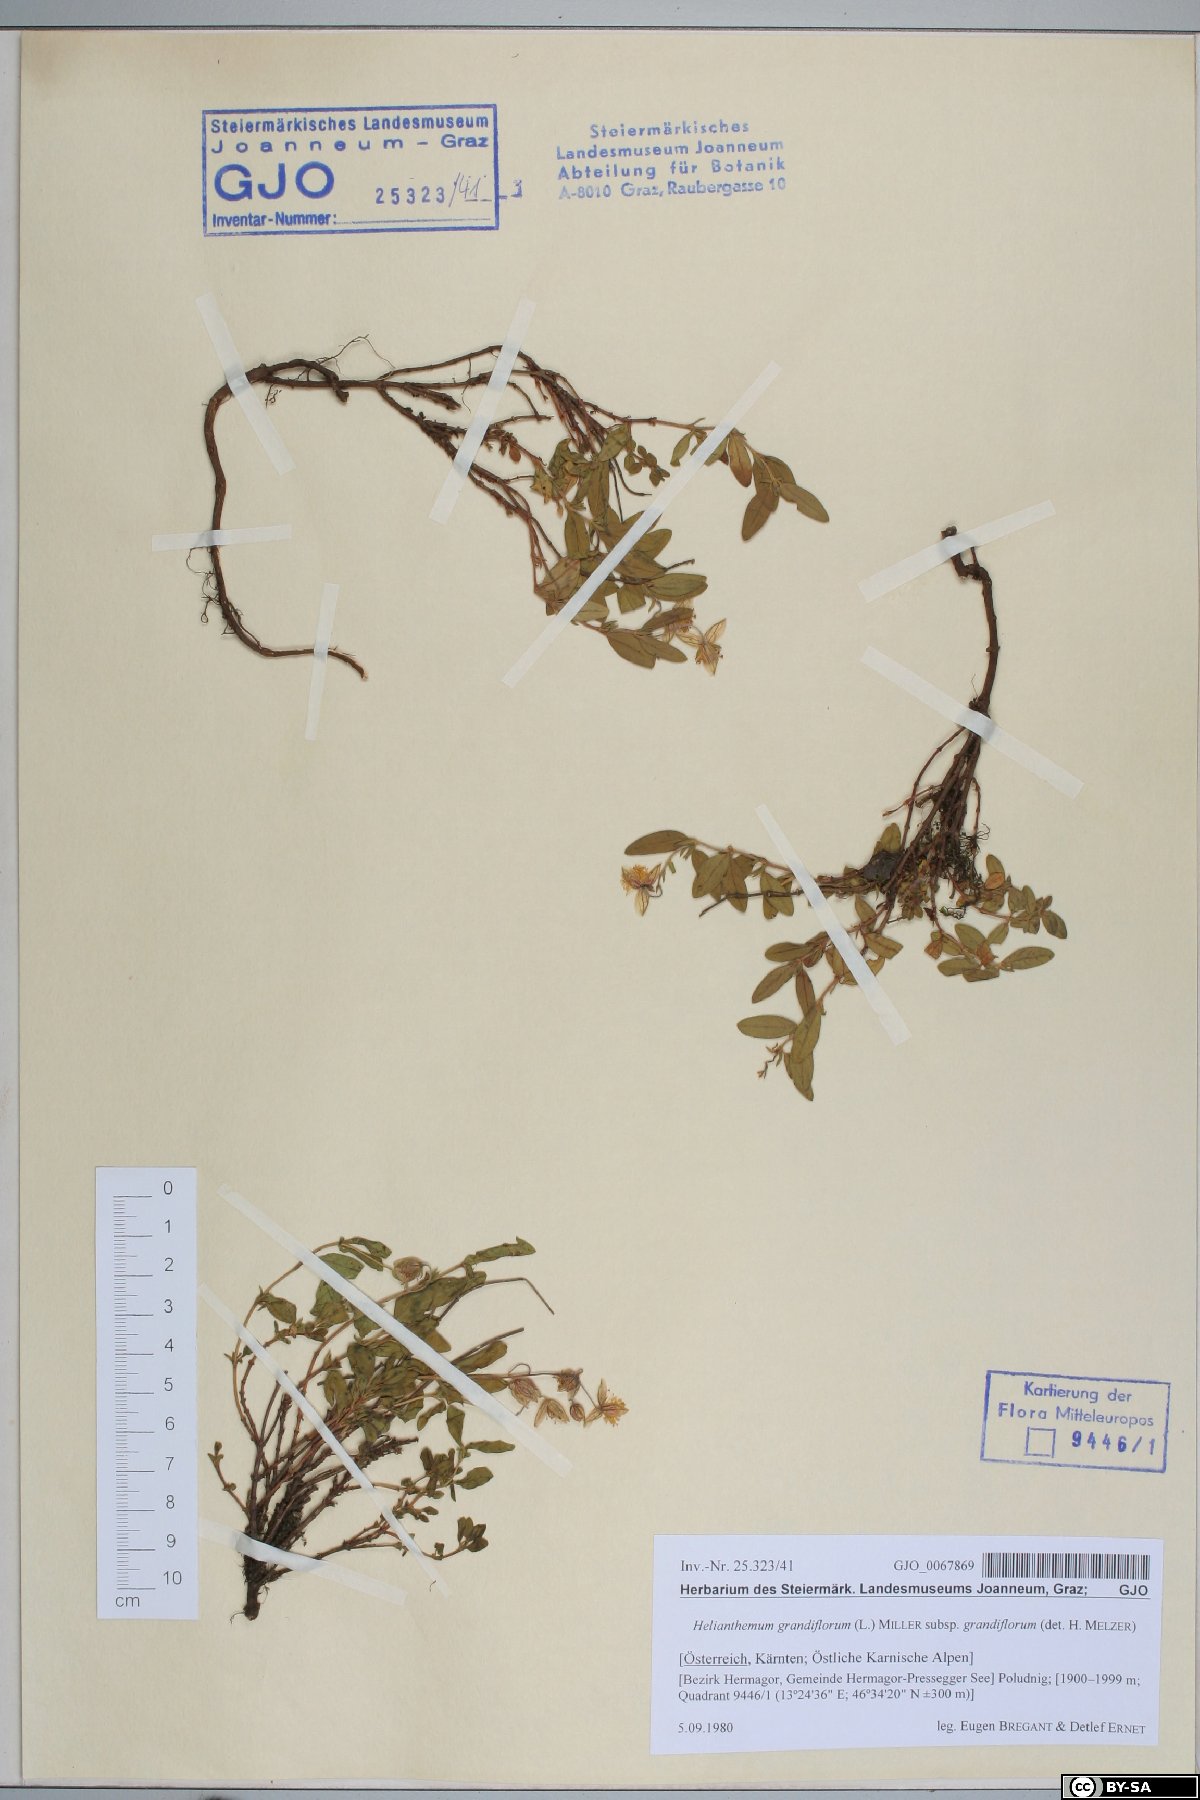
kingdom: Plantae
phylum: Tracheophyta
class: Magnoliopsida
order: Malvales
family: Cistaceae
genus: Helianthemum
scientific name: Helianthemum nummularium
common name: Common rock-rose
